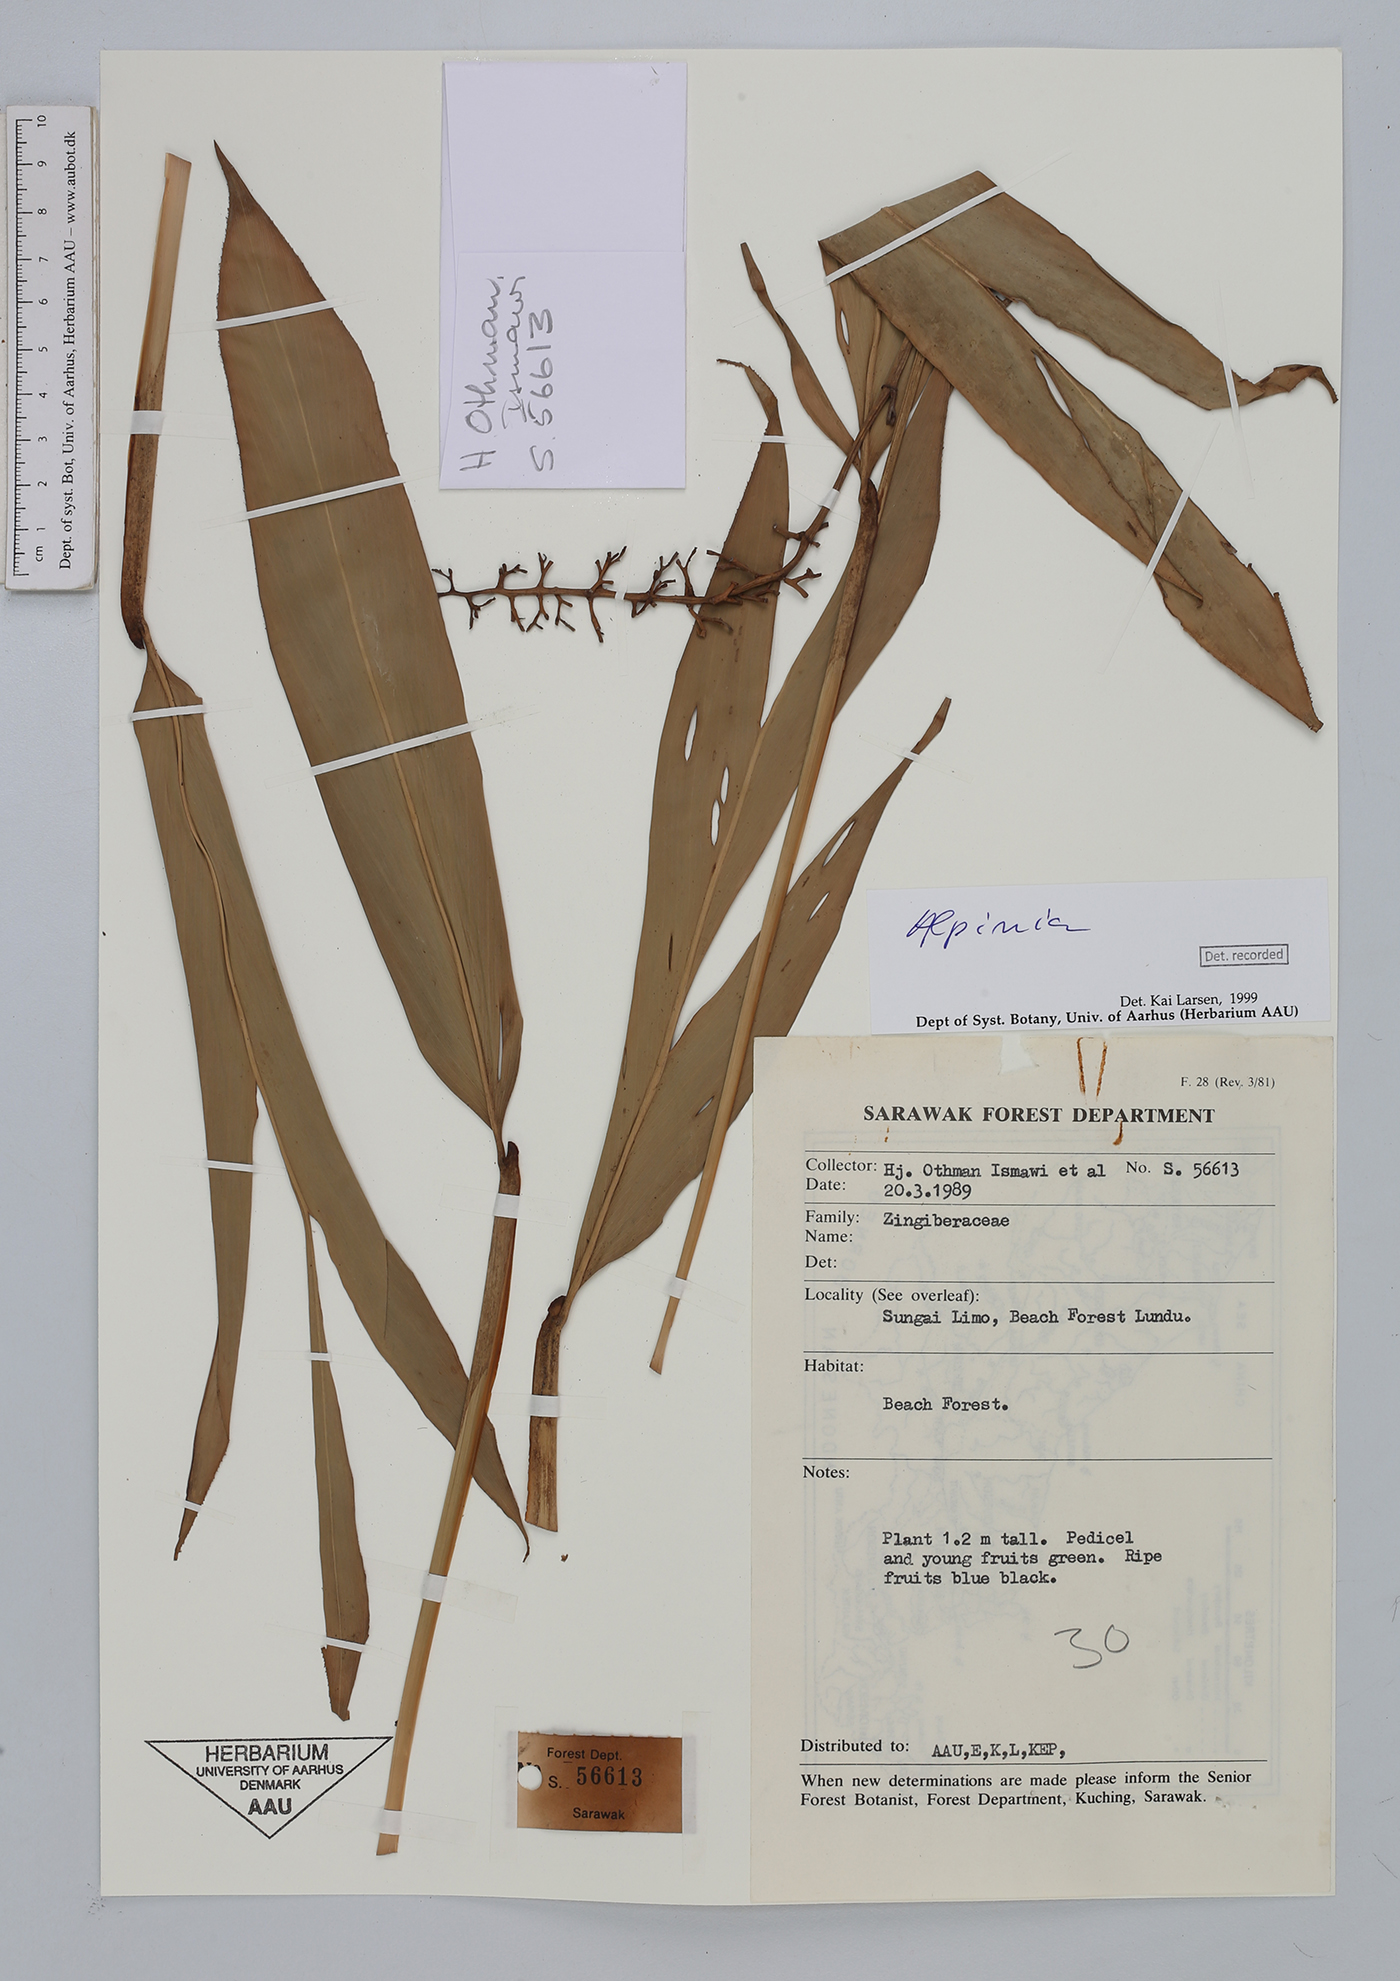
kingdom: Plantae
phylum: Tracheophyta
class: Liliopsida
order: Zingiberales
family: Zingiberaceae
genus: Alpinia
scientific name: Alpinia
